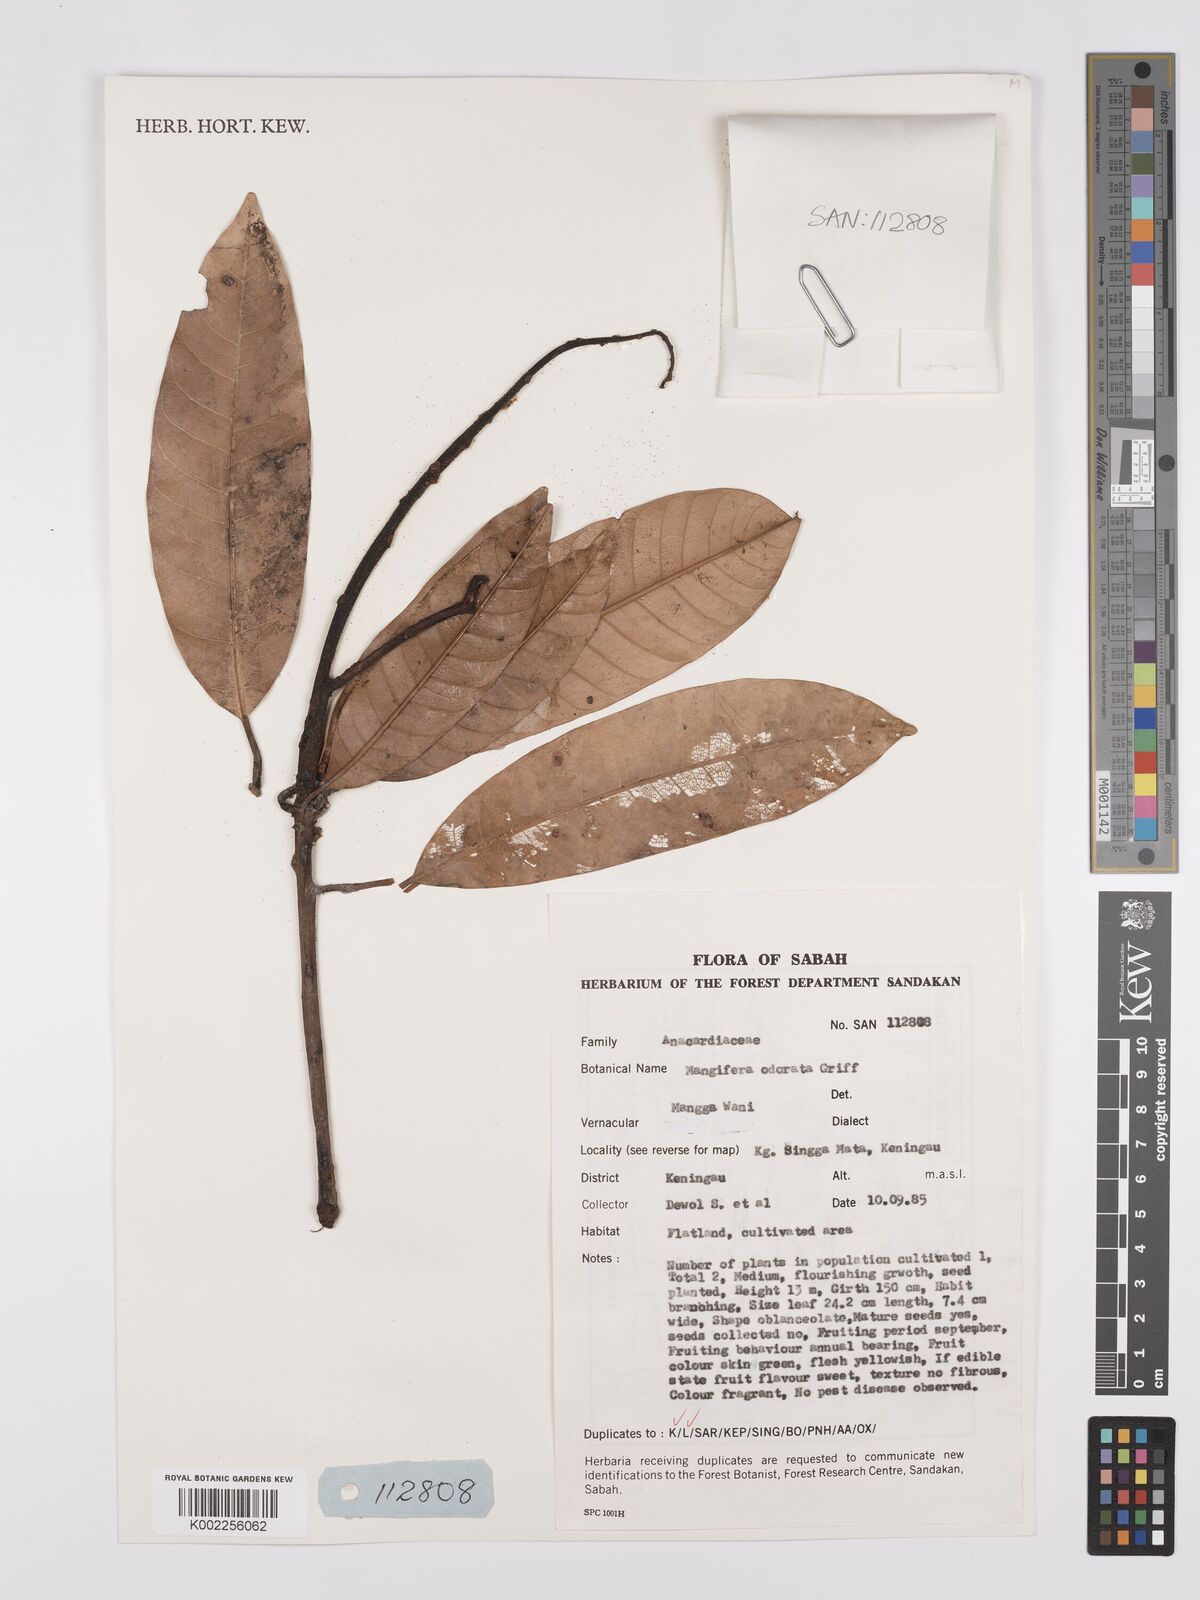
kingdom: Plantae
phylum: Tracheophyta
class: Magnoliopsida
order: Sapindales
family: Anacardiaceae
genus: Mangifera
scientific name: Mangifera odorata
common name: Saipan mango
